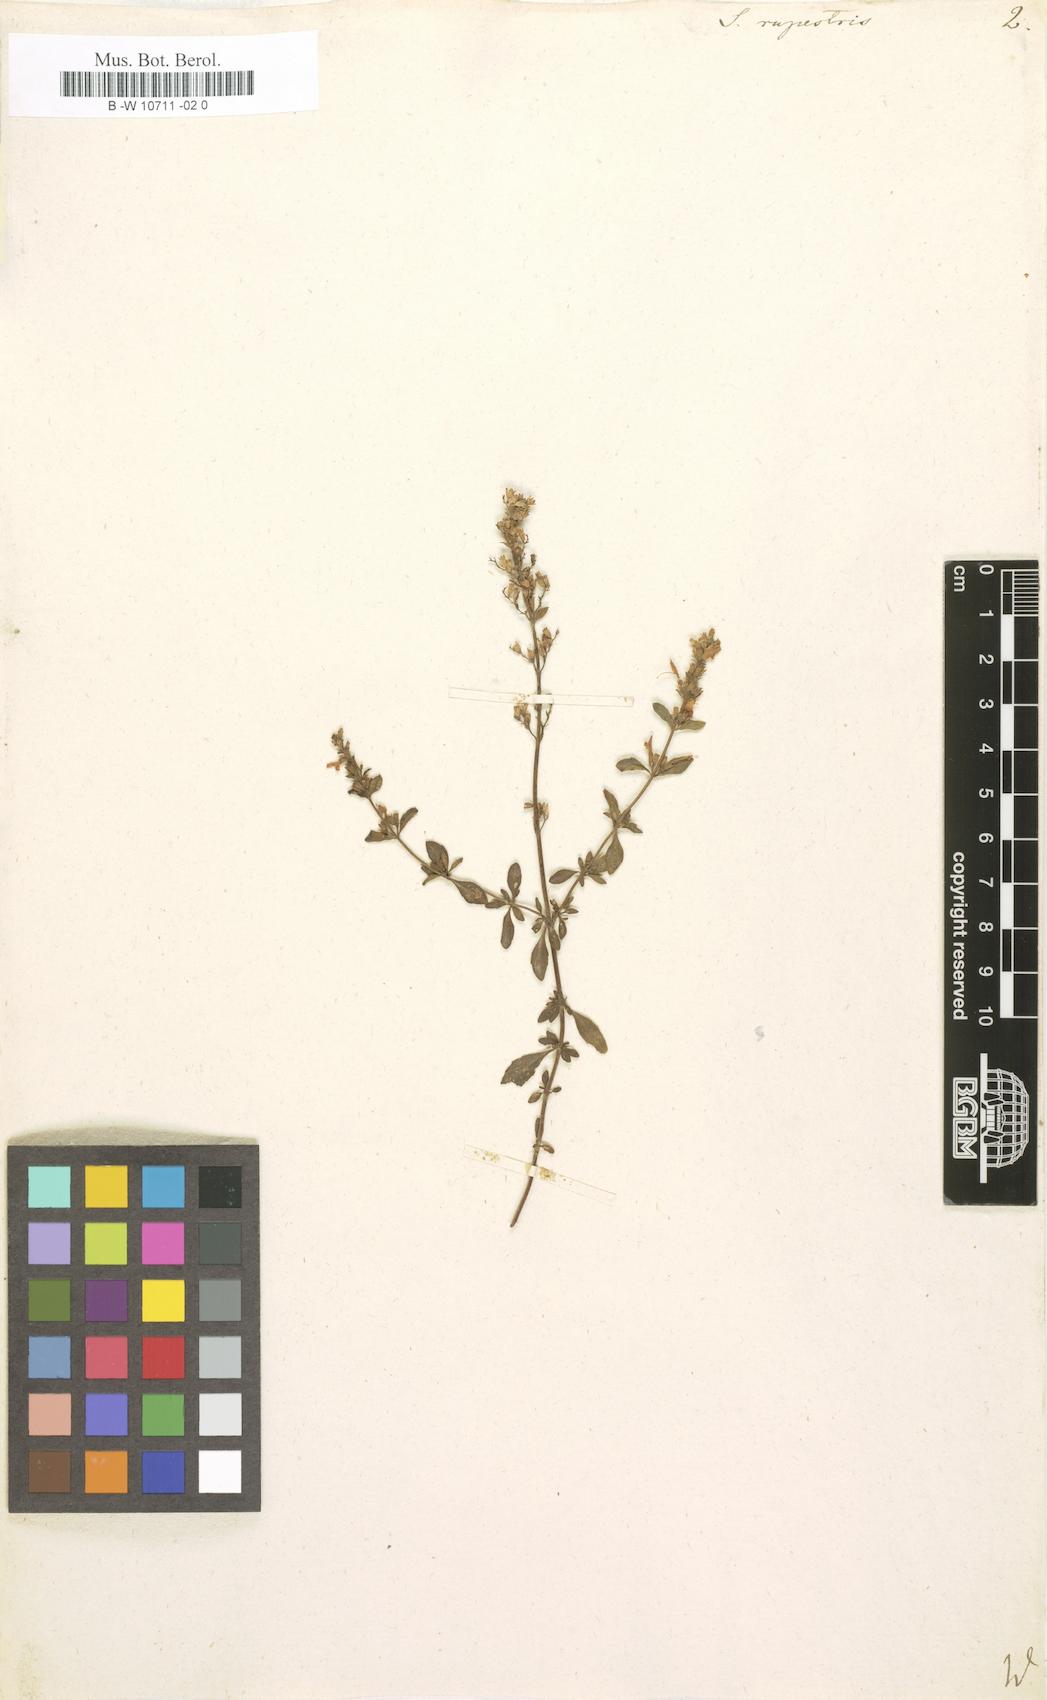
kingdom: Plantae
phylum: Tracheophyta
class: Magnoliopsida
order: Lamiales
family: Lamiaceae
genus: Clinopodium
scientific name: Clinopodium album
